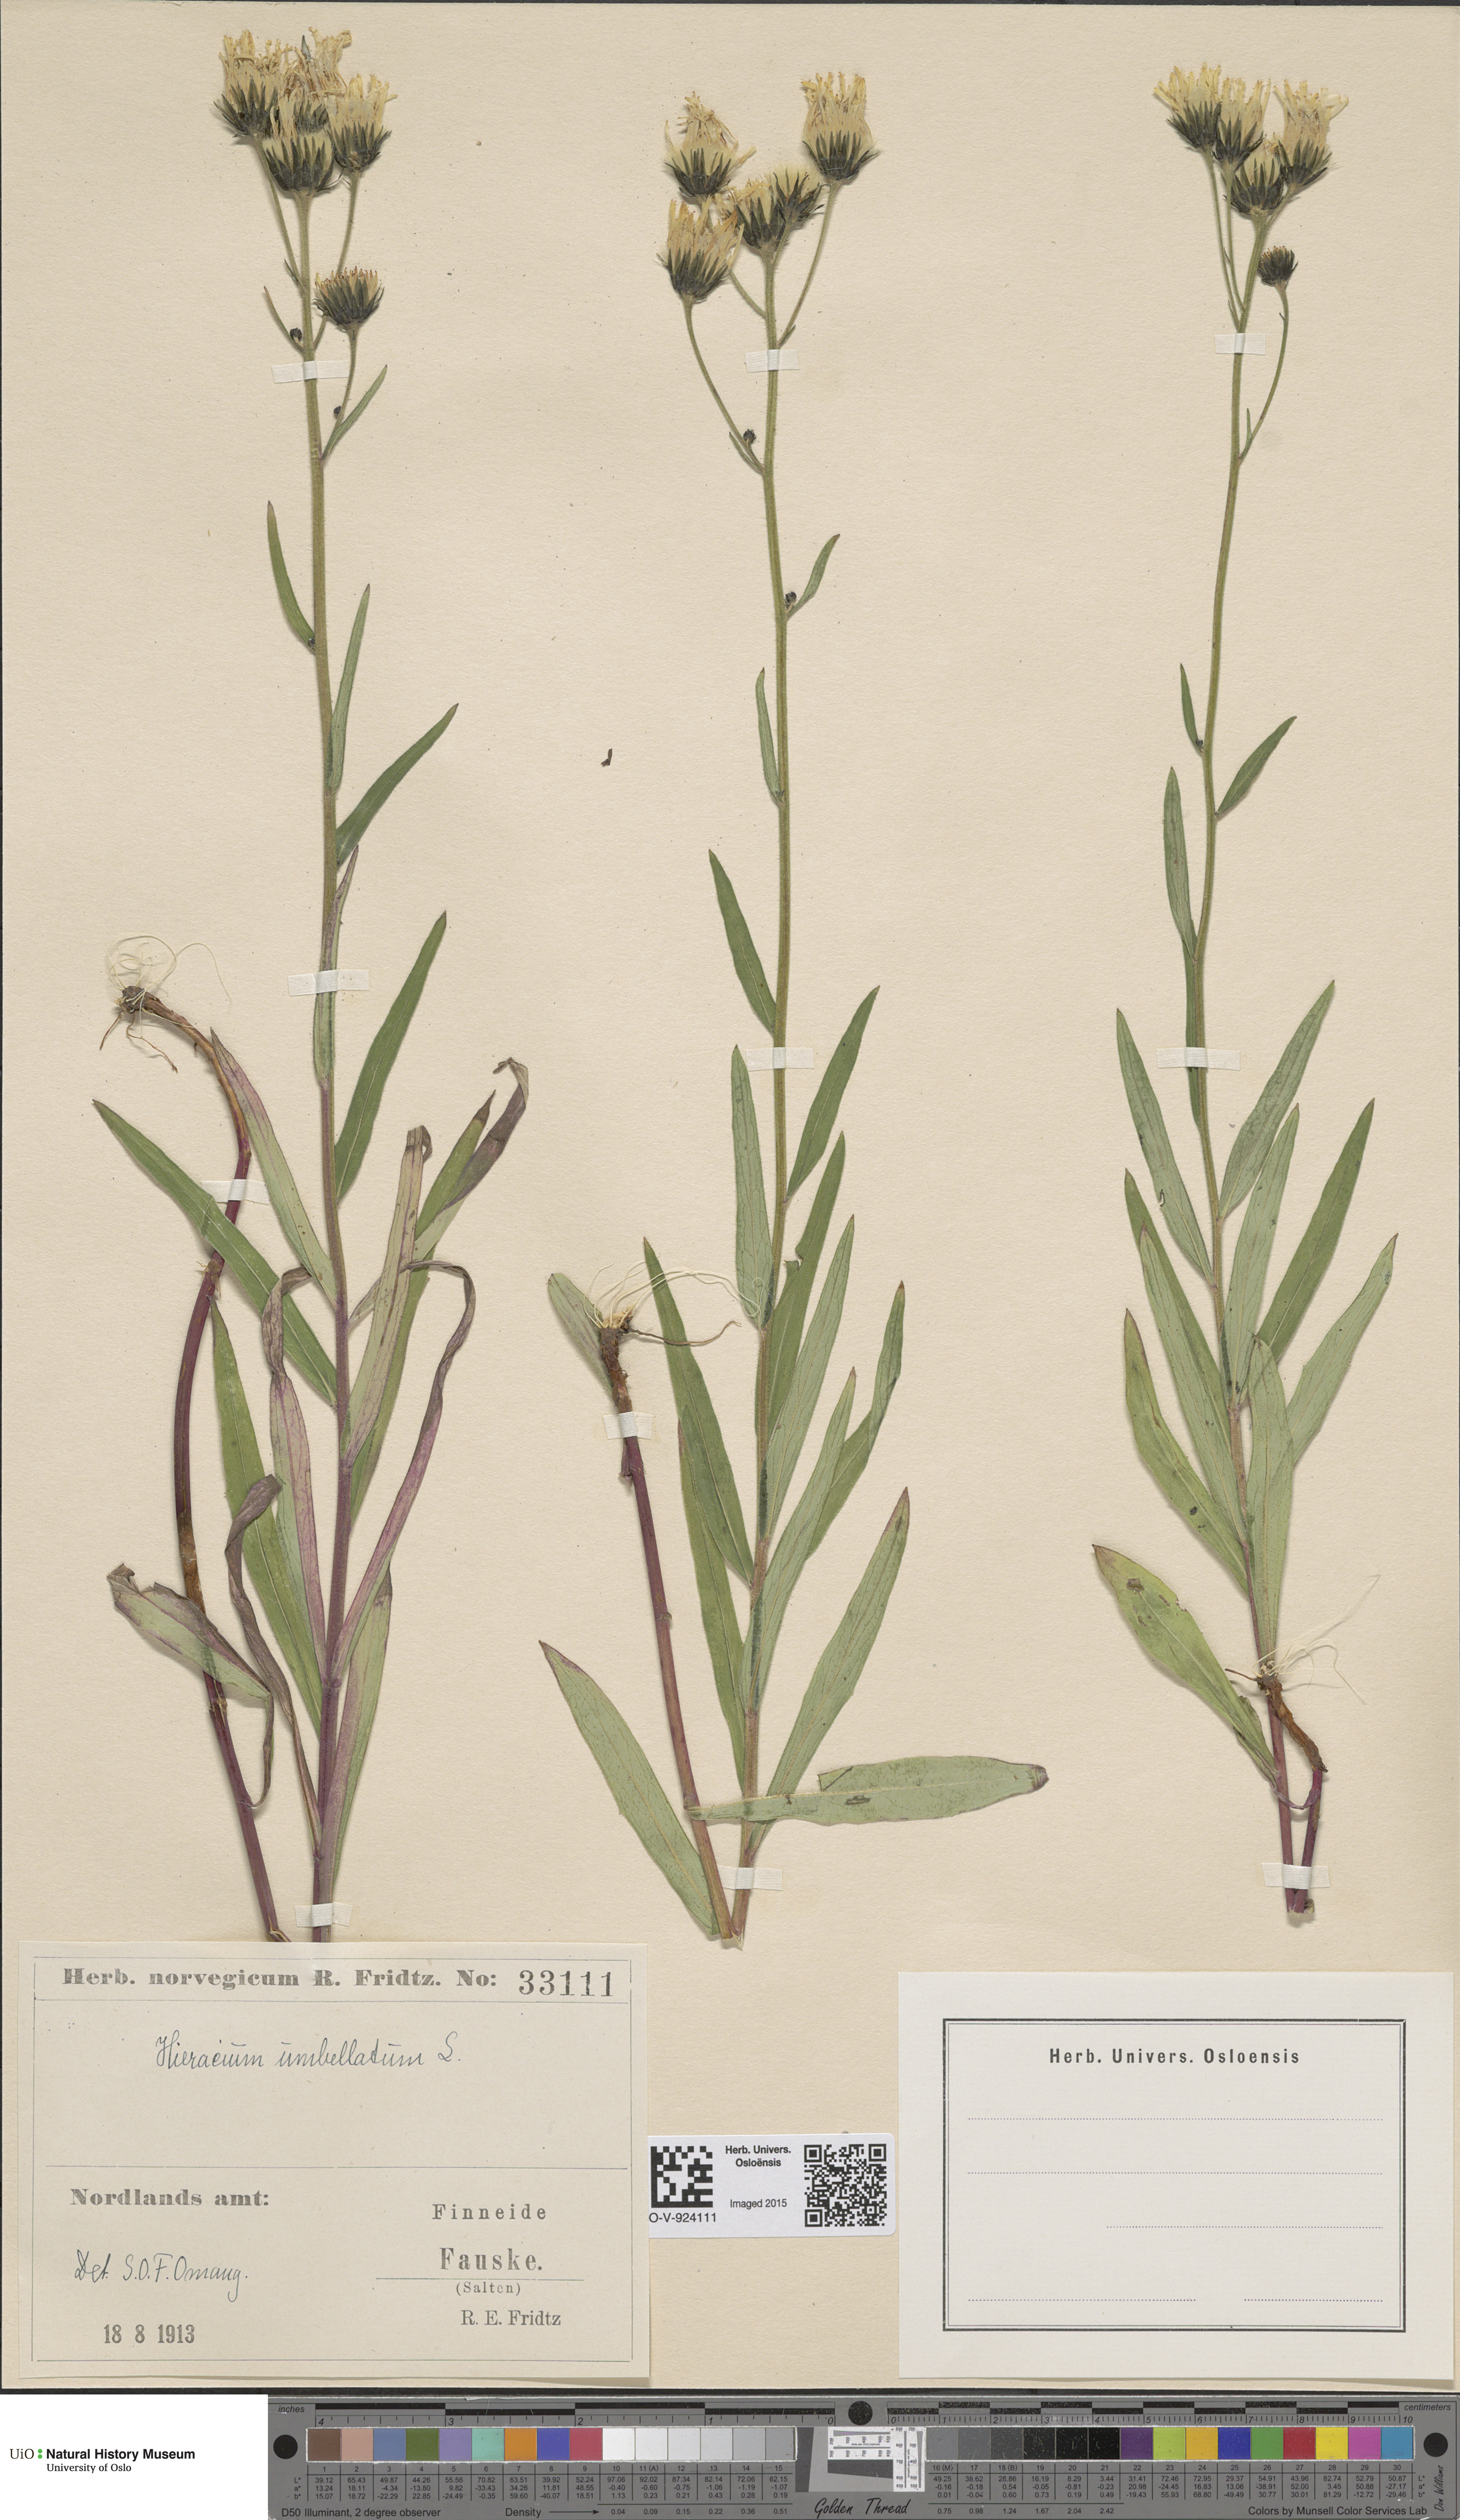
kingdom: Plantae
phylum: Tracheophyta
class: Magnoliopsida
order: Asterales
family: Asteraceae
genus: Hieracium
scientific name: Hieracium umbellatum
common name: Northern hawkweed
